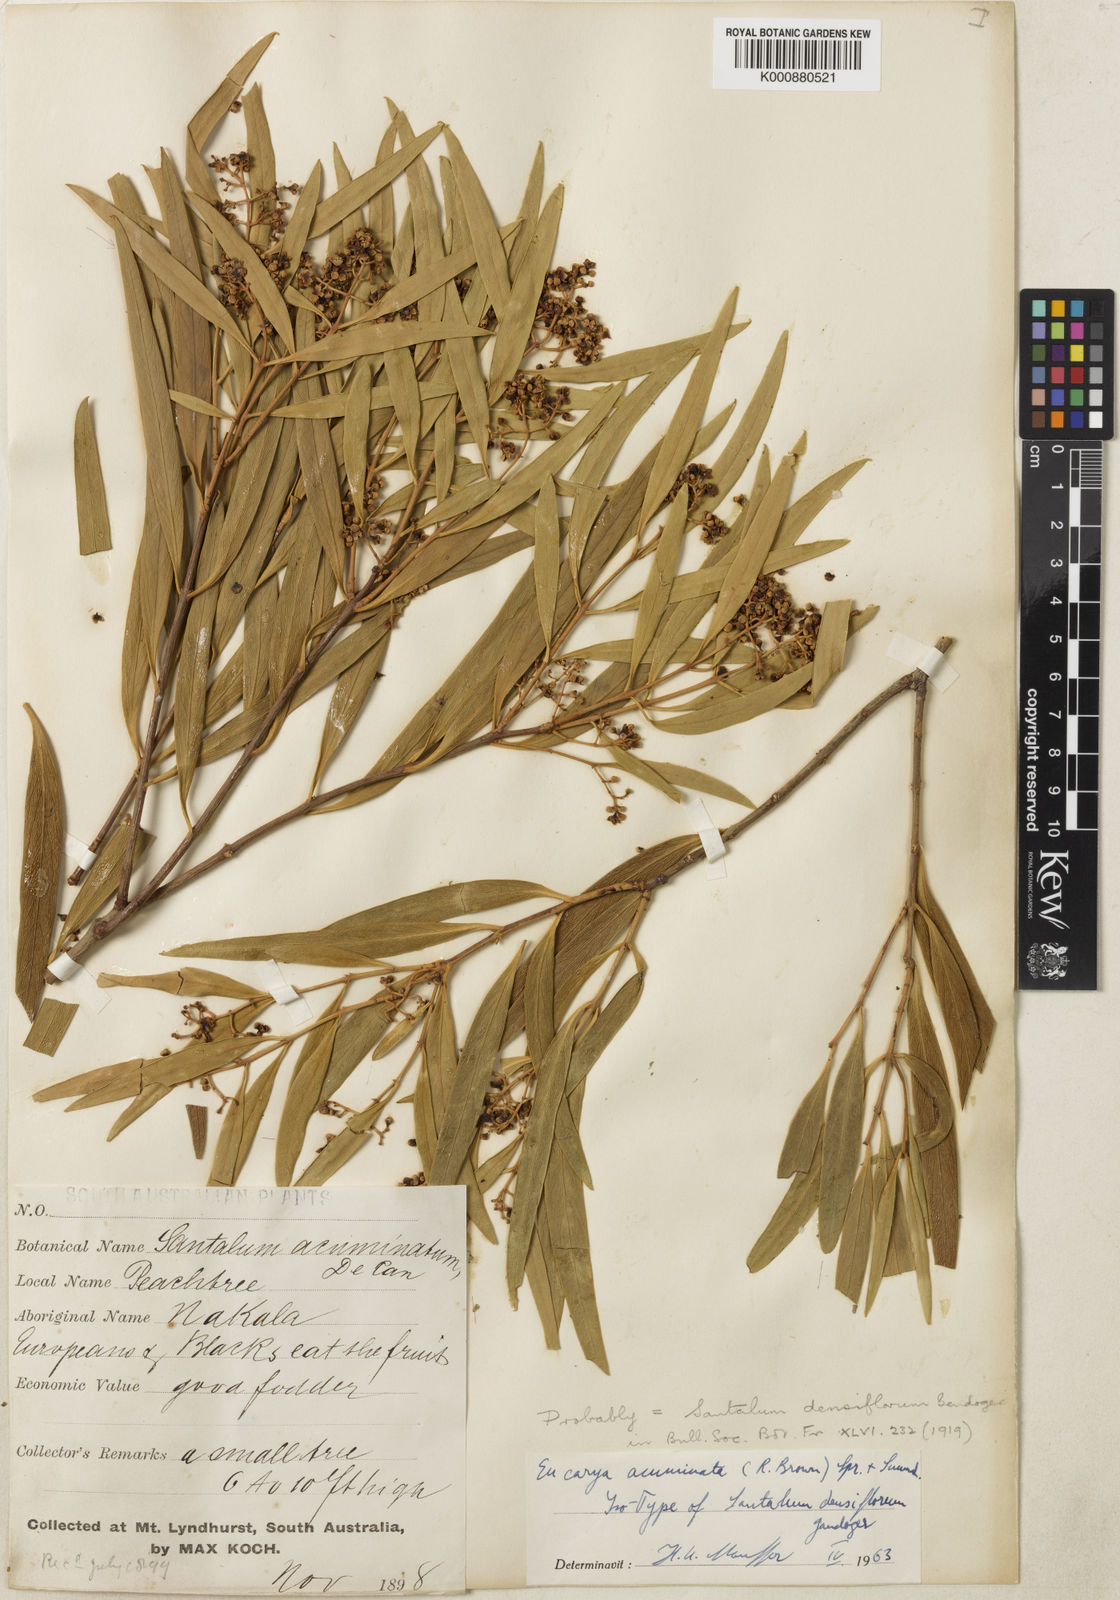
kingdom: Plantae
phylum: Tracheophyta
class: Magnoliopsida
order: Santalales
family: Santalaceae
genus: Santalum
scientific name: Santalum acuminatum
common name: Sweet quandong
